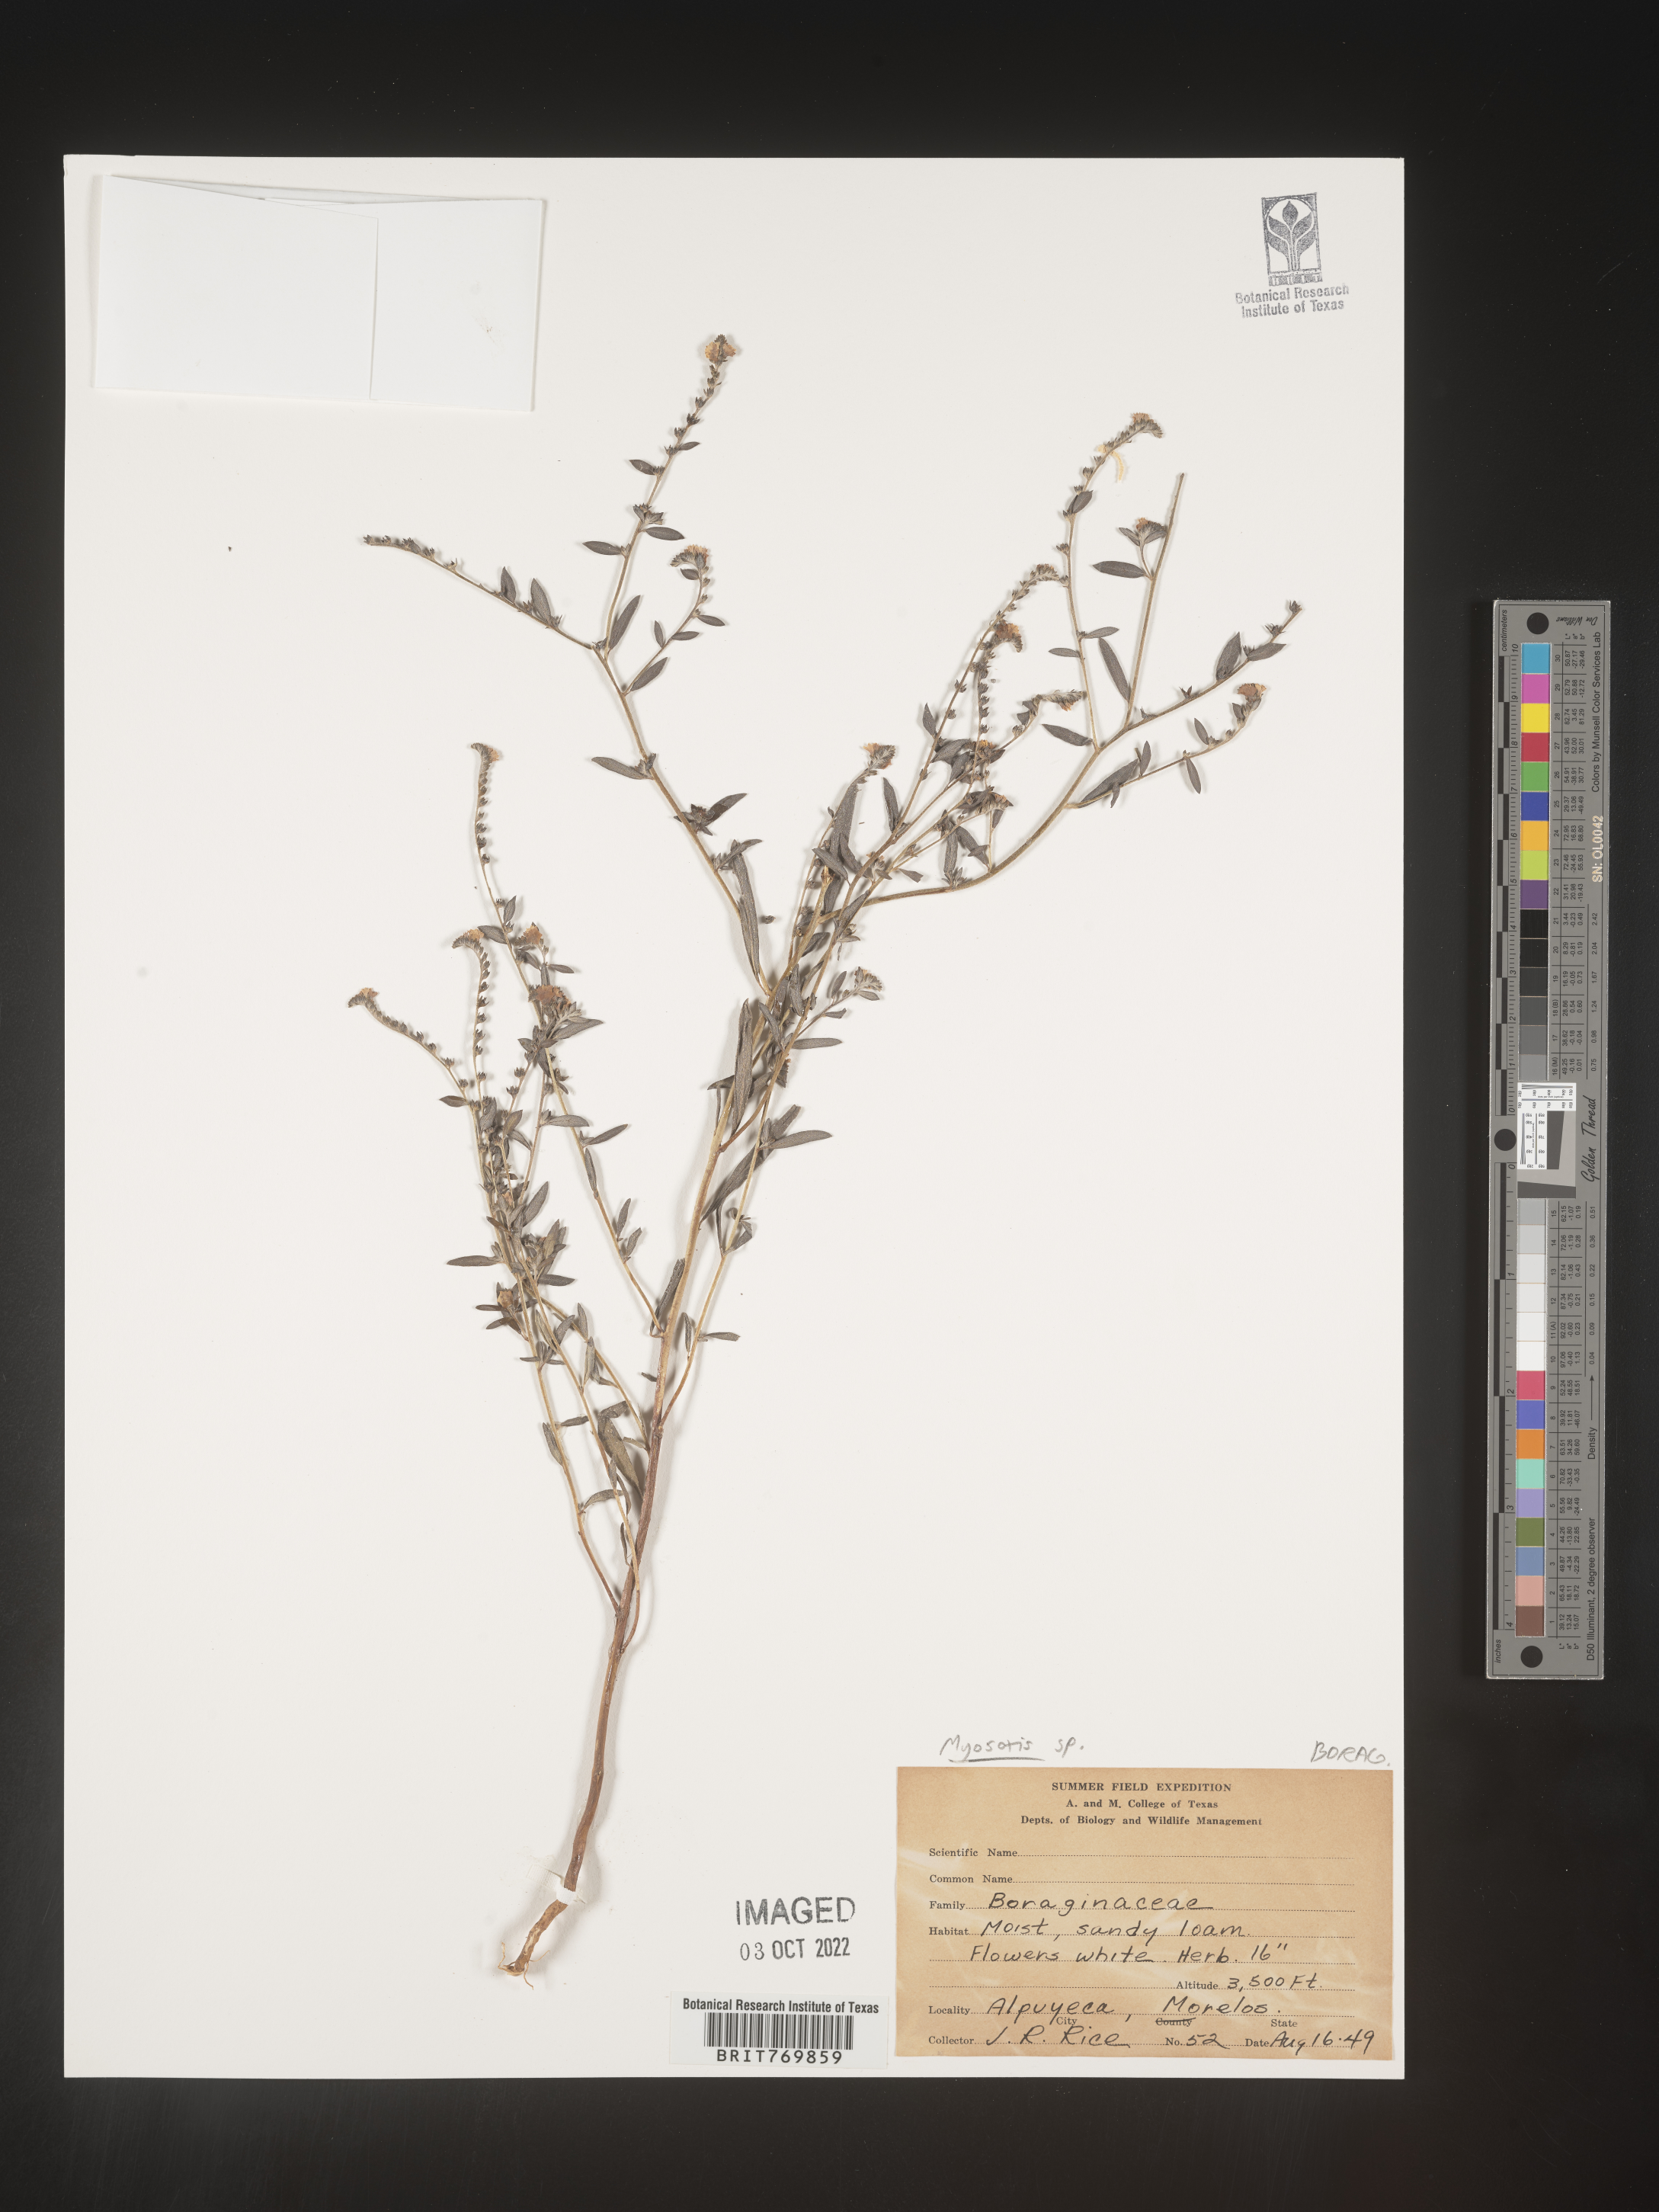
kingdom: Plantae
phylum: Tracheophyta
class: Magnoliopsida
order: Boraginales
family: Boraginaceae
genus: Myosotis
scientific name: Myosotis
